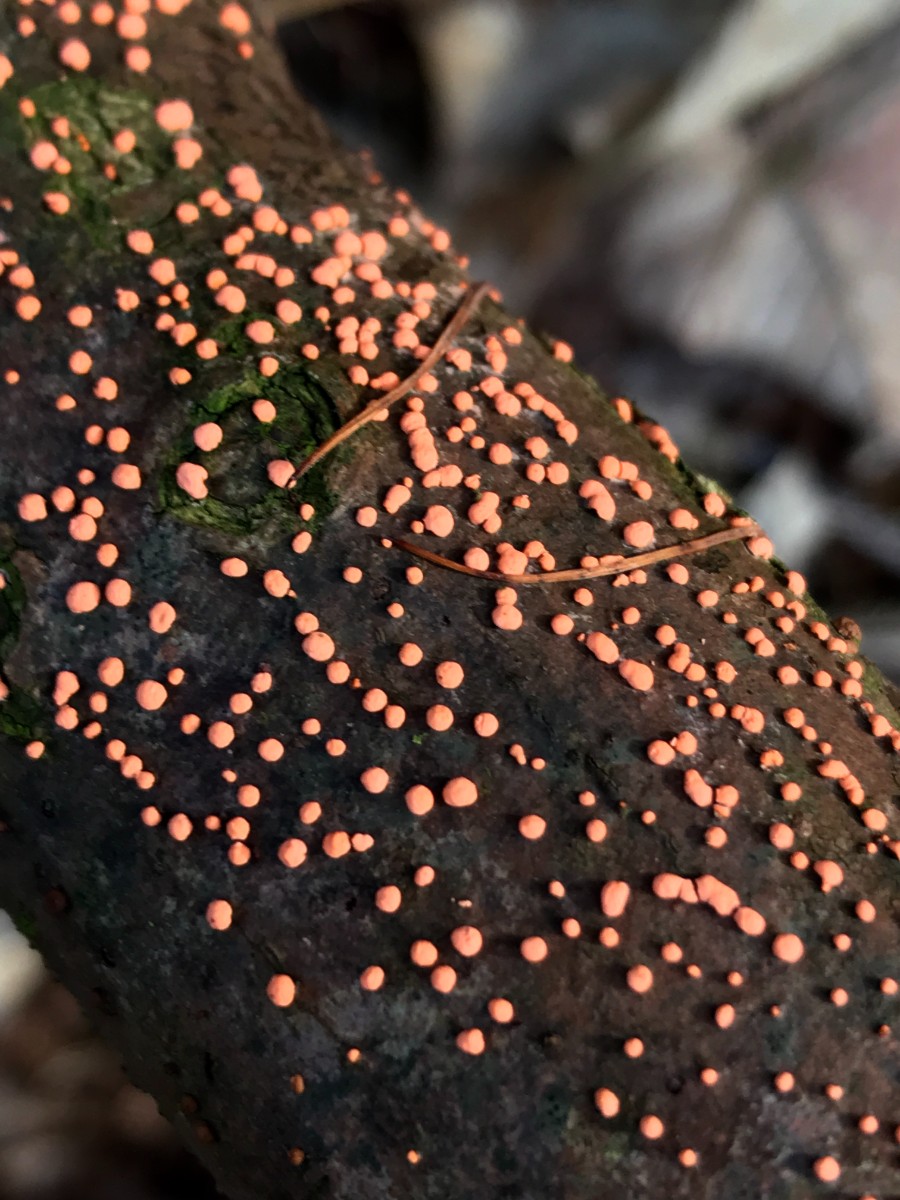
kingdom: Fungi
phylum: Ascomycota
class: Sordariomycetes
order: Hypocreales
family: Nectriaceae
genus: Nectria
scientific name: Nectria cinnabarina
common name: almindelig cinnobersvamp
